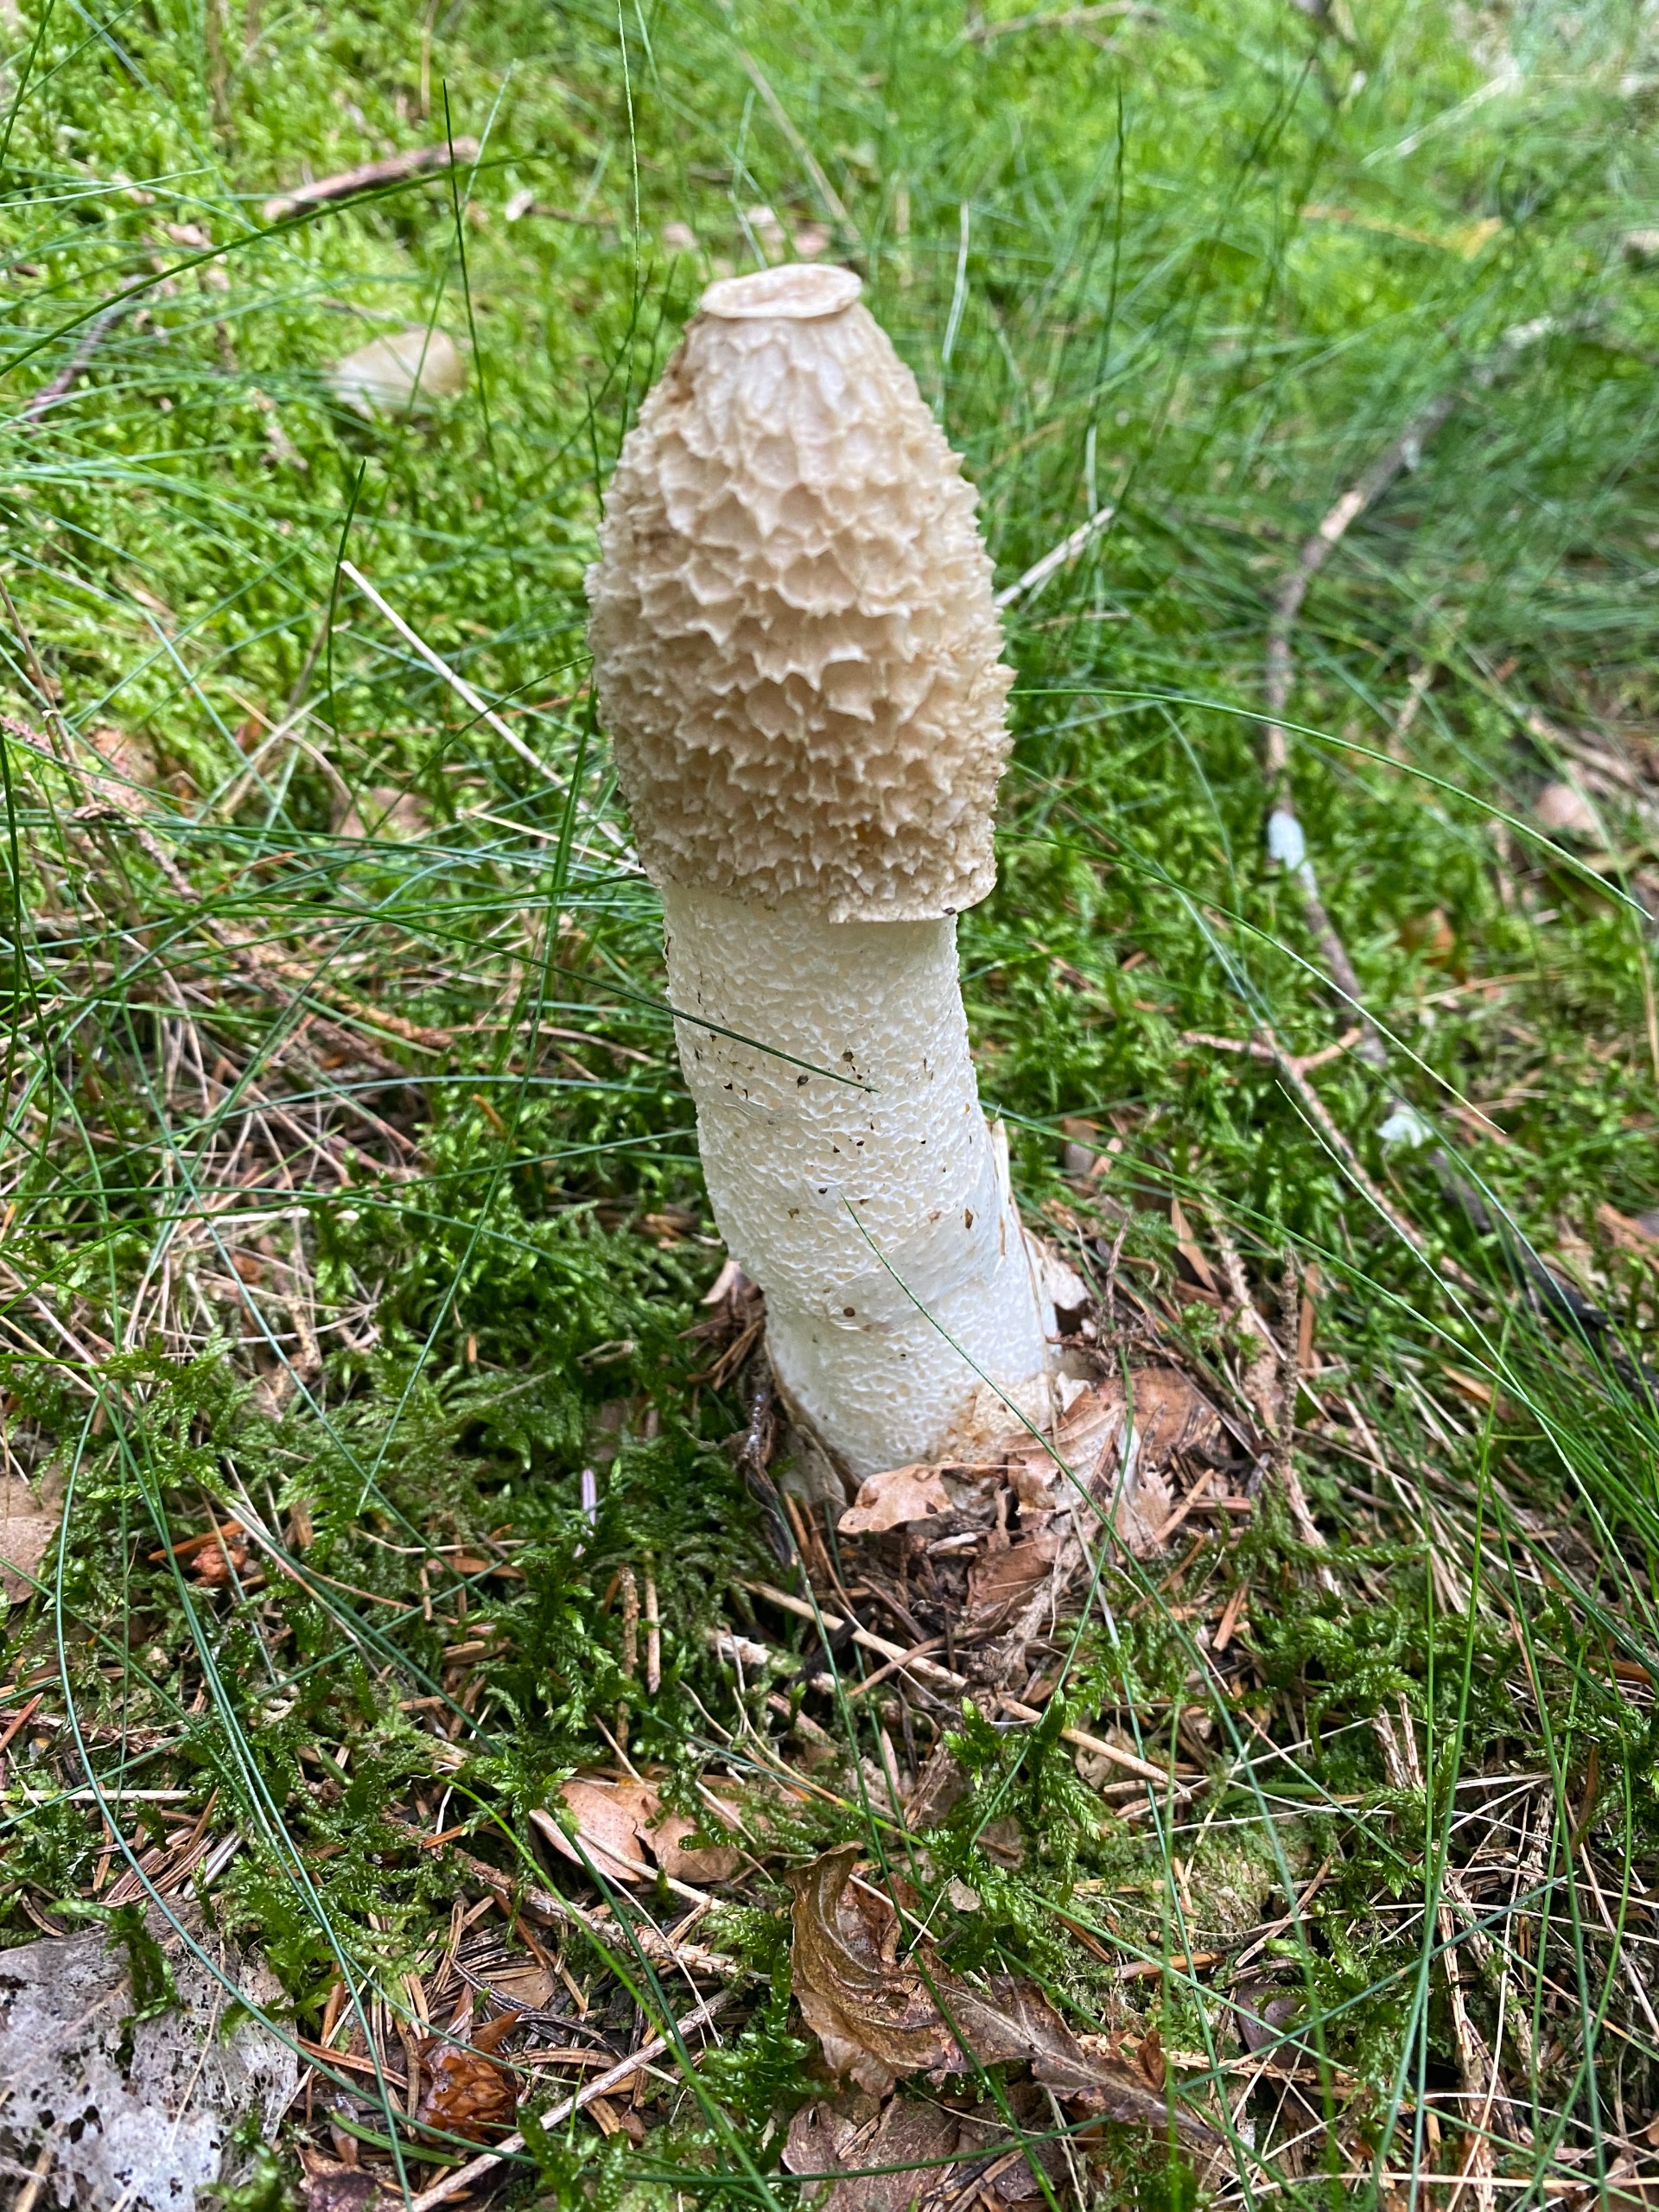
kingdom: Fungi
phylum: Basidiomycota
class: Agaricomycetes
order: Phallales
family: Phallaceae
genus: Phallus
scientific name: Phallus impudicus
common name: Almindelig stinksvamp
